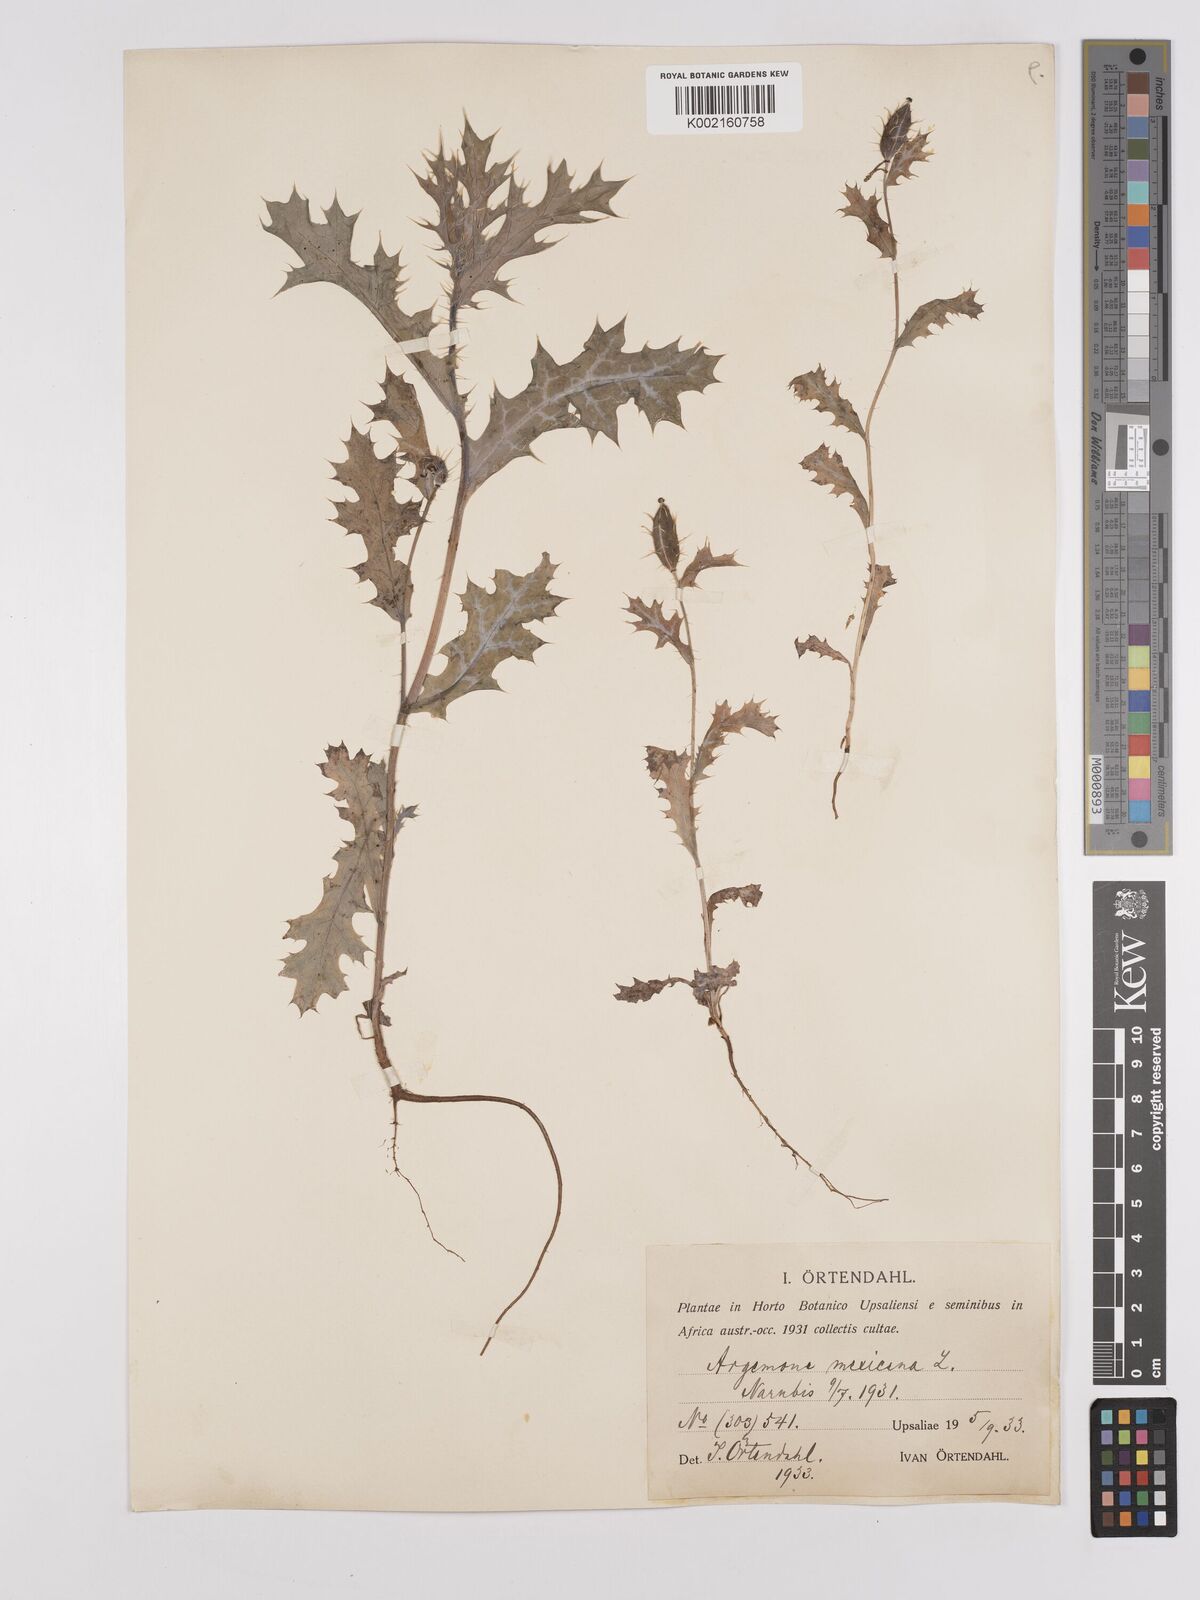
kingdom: Plantae
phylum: Tracheophyta
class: Magnoliopsida
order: Ranunculales
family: Papaveraceae
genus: Argemone
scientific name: Argemone mexicana
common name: Mexican poppy
